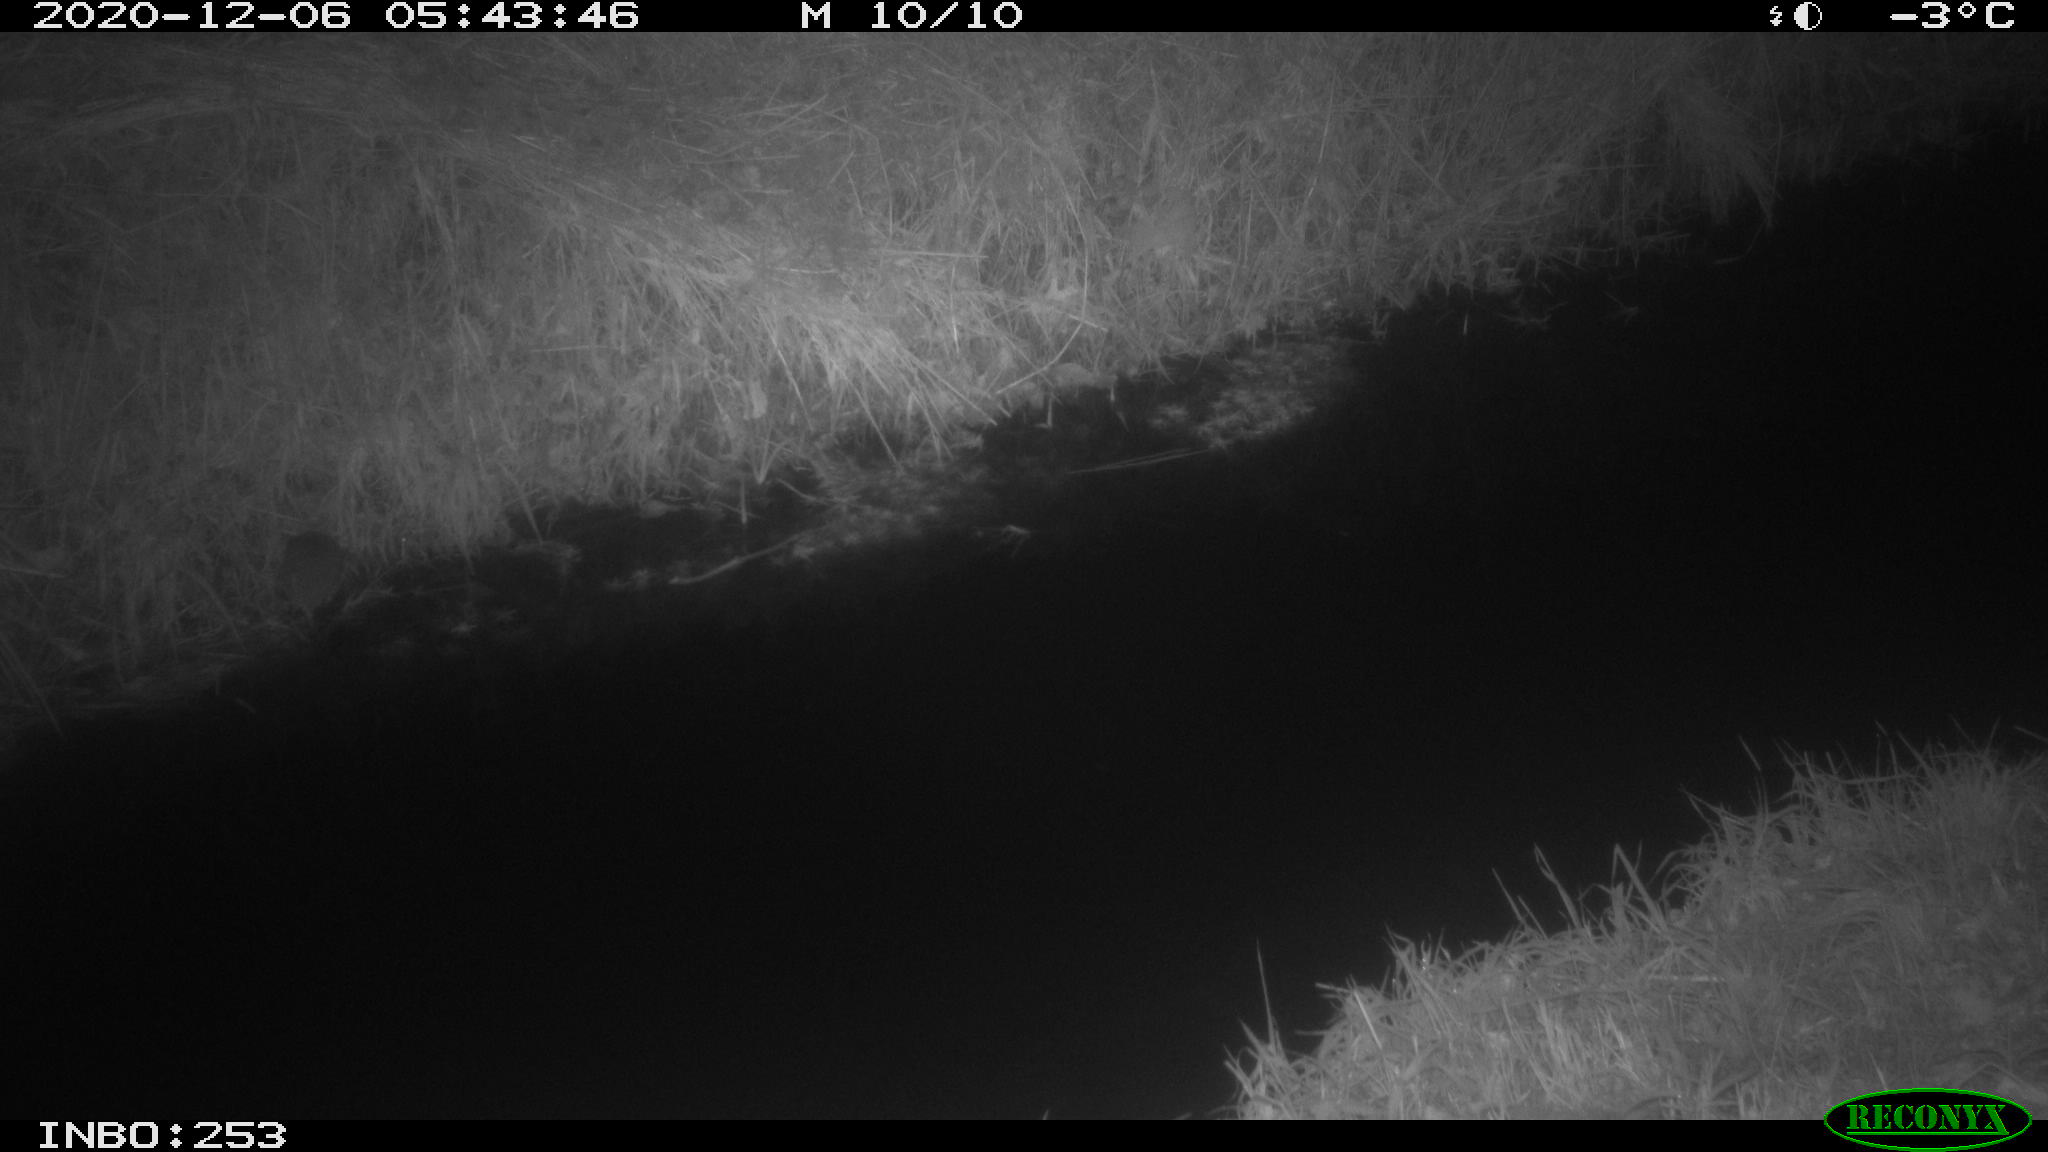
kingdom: Animalia
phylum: Chordata
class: Mammalia
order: Rodentia
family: Muridae
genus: Rattus
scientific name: Rattus norvegicus
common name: Brown rat
